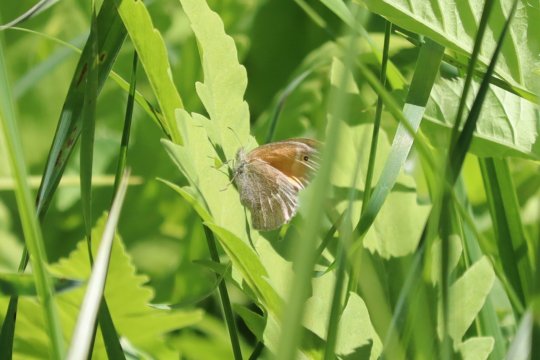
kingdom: Animalia
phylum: Arthropoda
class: Insecta
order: Lepidoptera
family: Nymphalidae
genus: Coenonympha
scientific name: Coenonympha
